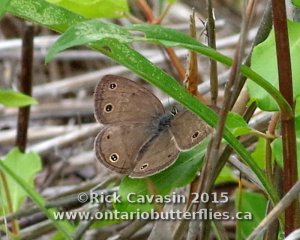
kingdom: Animalia
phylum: Arthropoda
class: Insecta
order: Lepidoptera
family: Nymphalidae
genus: Euptychia
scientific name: Euptychia cymela
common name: Little Wood Satyr
